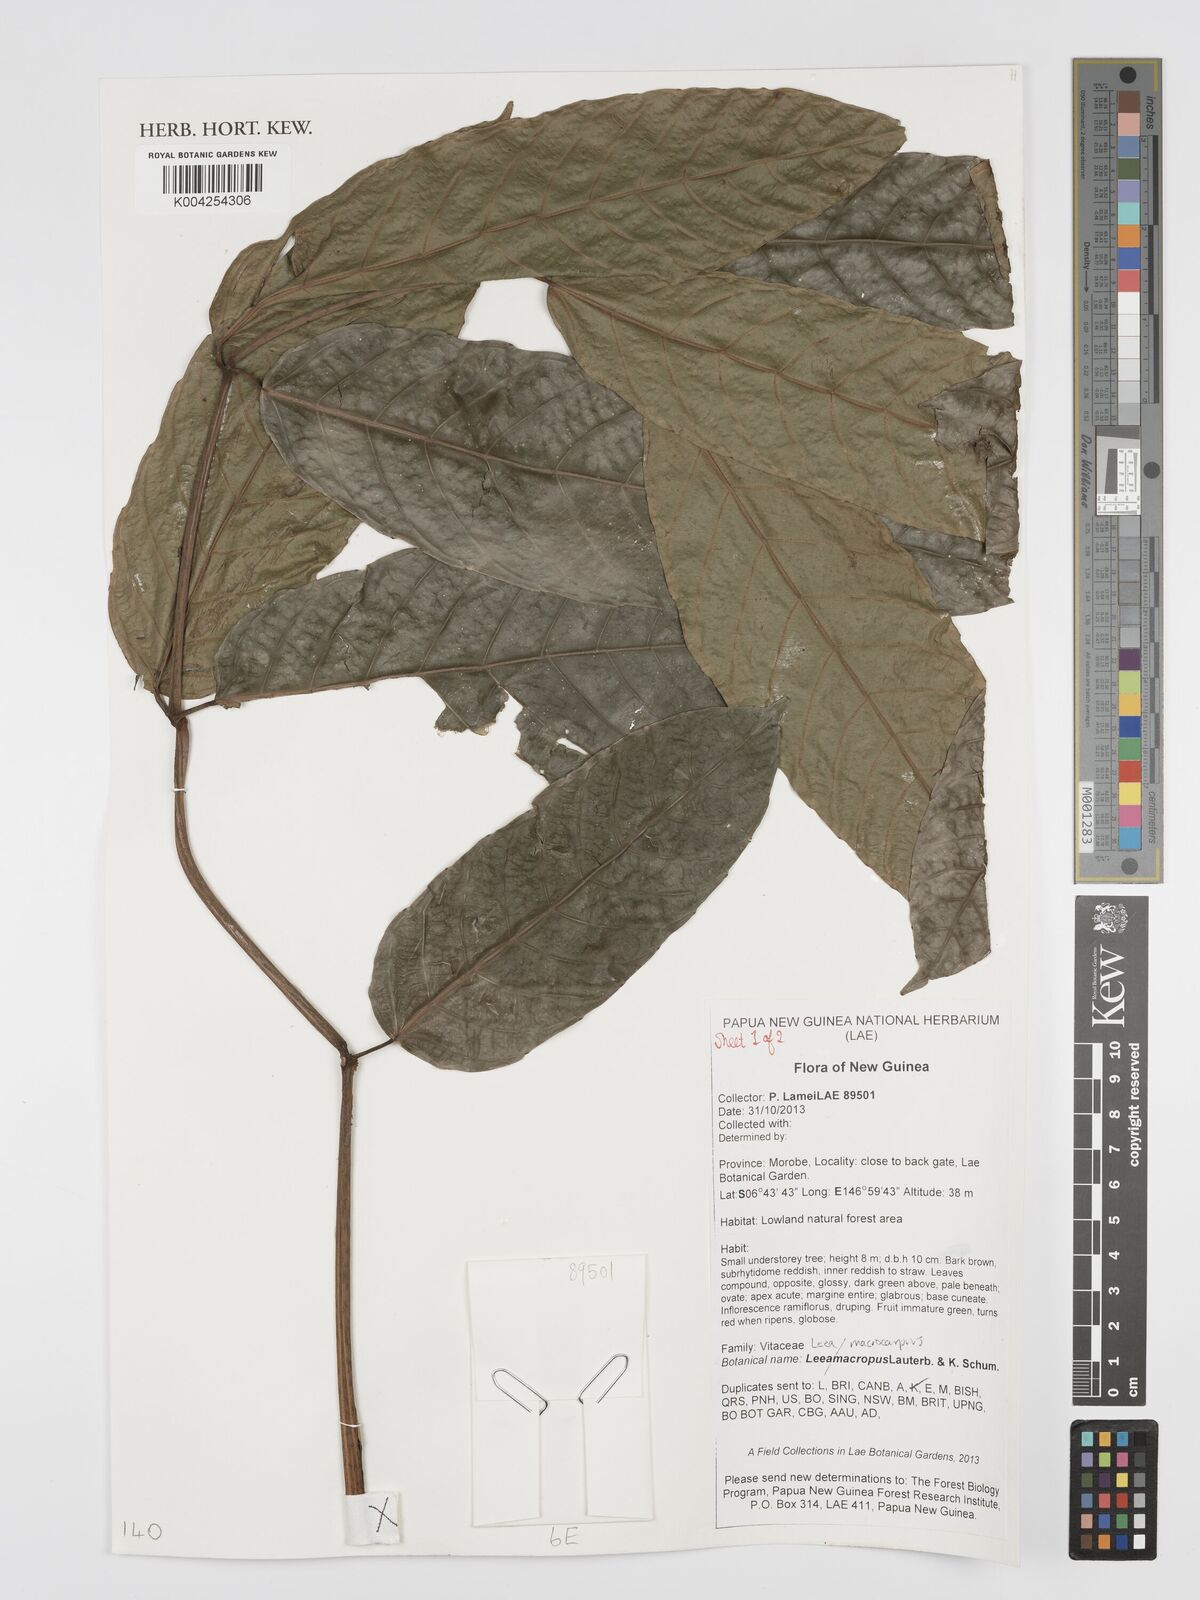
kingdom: Plantae
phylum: Tracheophyta
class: Magnoliopsida
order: Vitales
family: Vitaceae
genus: Leea
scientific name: Leea macropus
